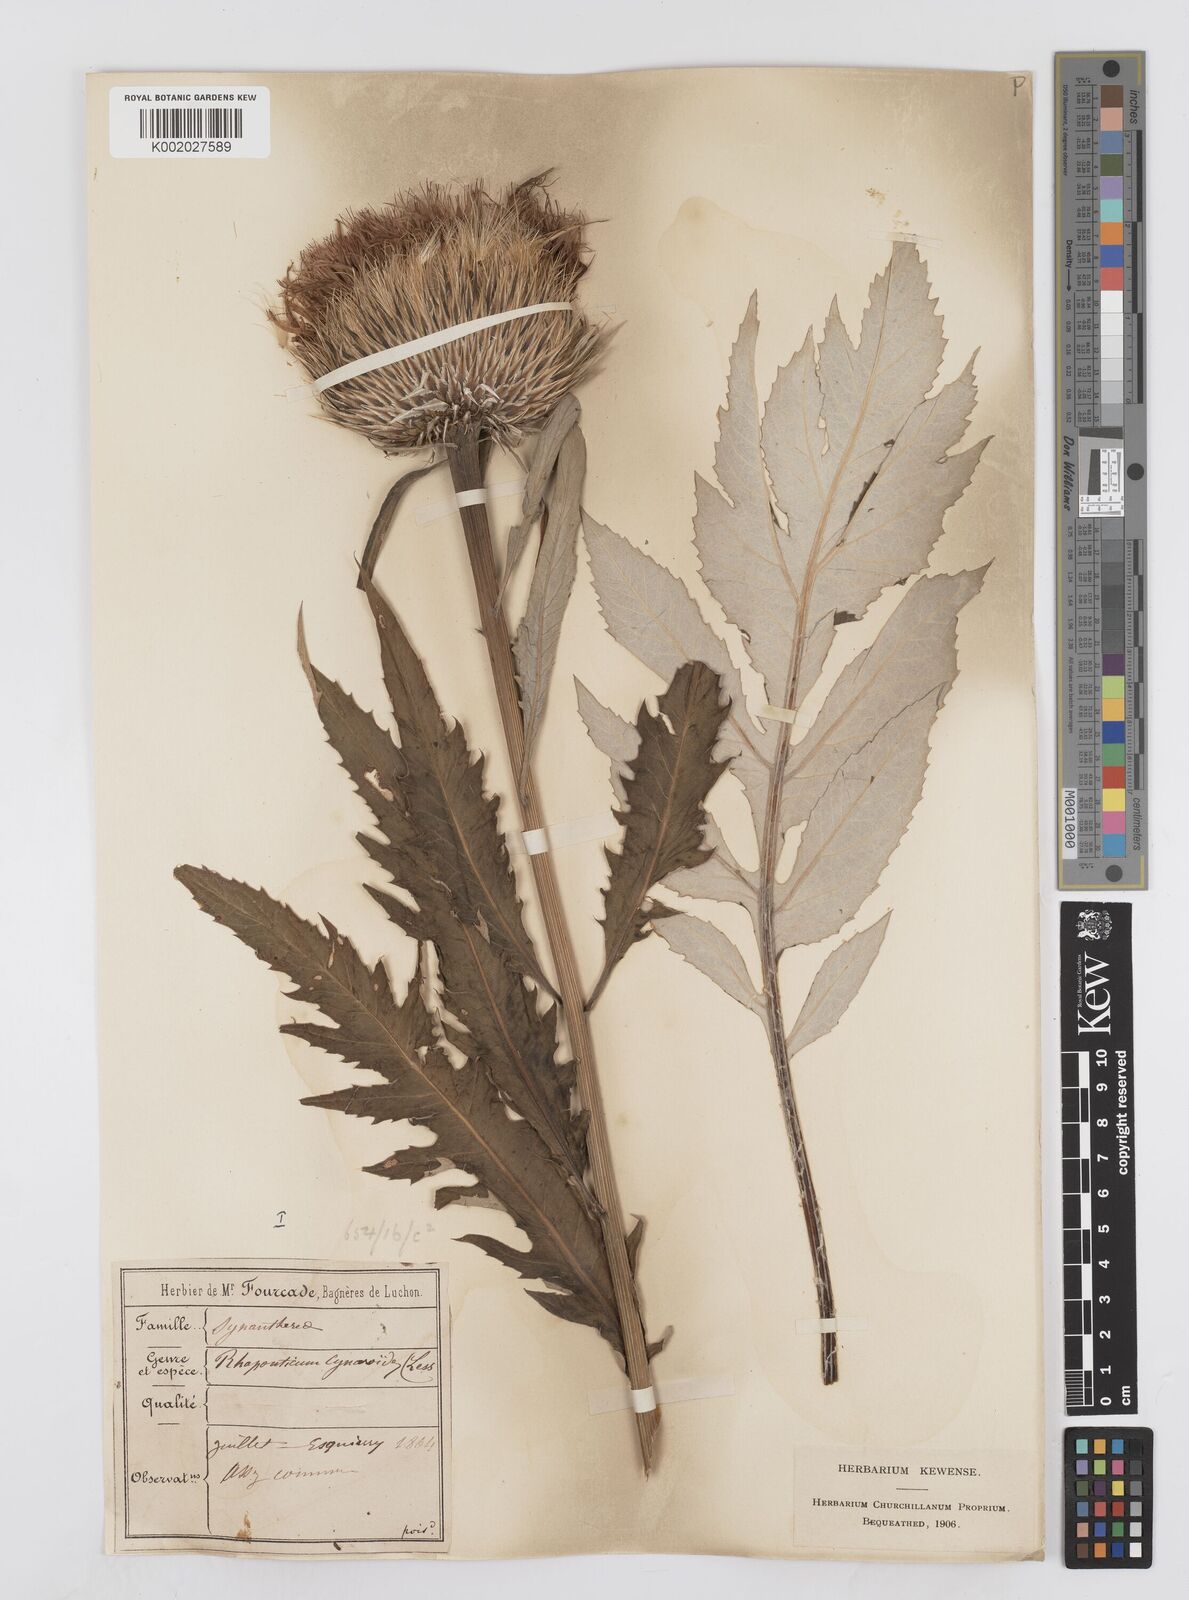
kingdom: Plantae
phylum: Tracheophyta
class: Magnoliopsida
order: Asterales
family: Asteraceae
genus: Leuzea
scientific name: Leuzea centauroides
